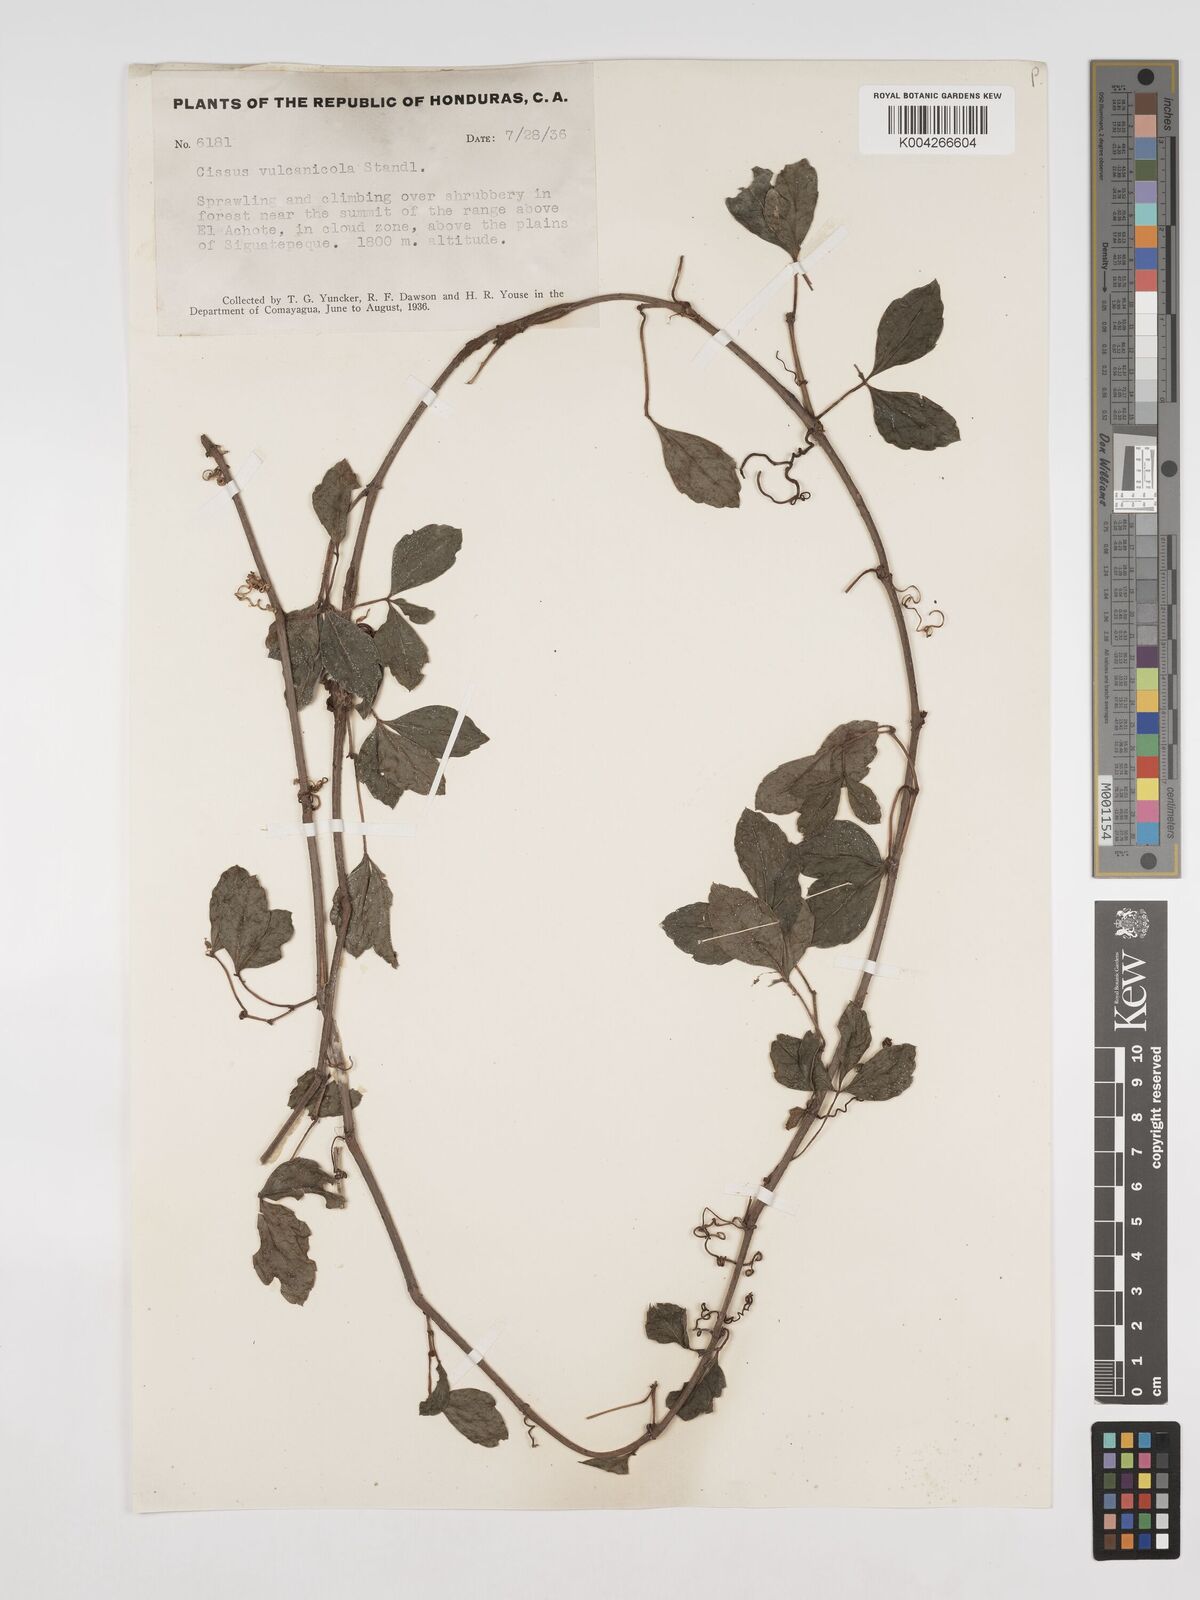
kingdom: Plantae
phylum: Tracheophyta
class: Magnoliopsida
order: Vitales
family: Vitaceae
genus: Cissus
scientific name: Cissus
